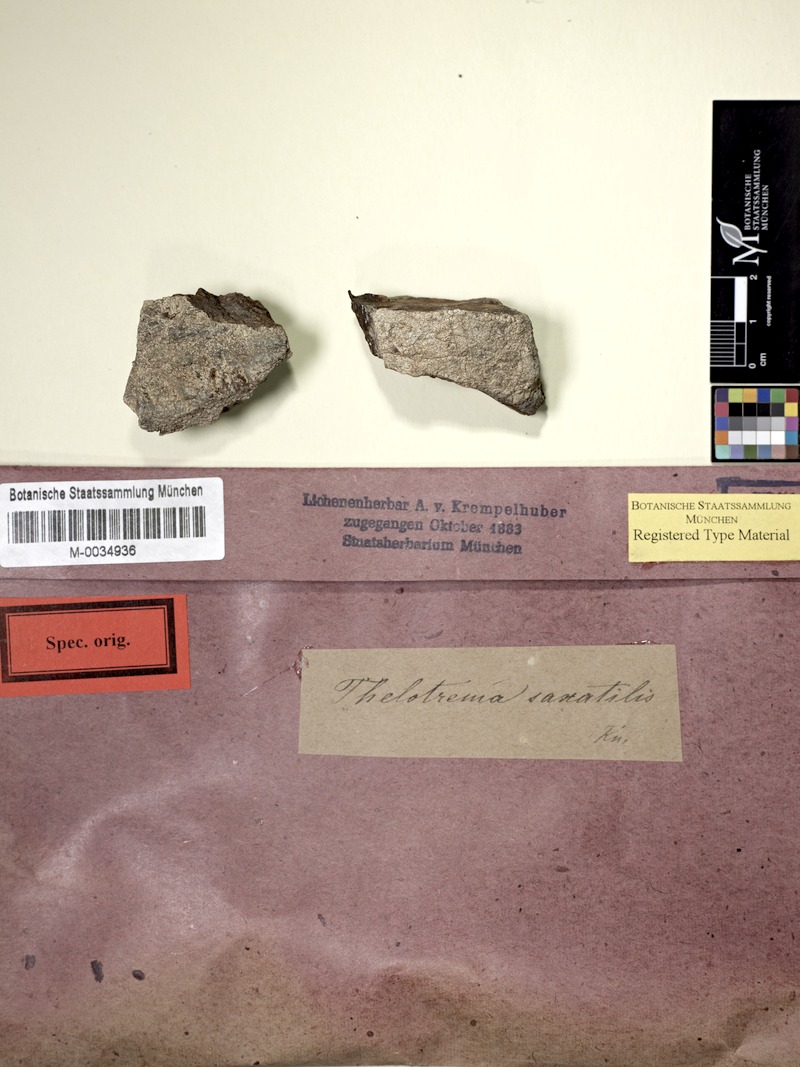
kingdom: Fungi
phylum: Ascomycota
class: Lecanoromycetes
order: Ostropales
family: Graphidaceae
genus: Thelotrema
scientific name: Thelotrema monosporum
